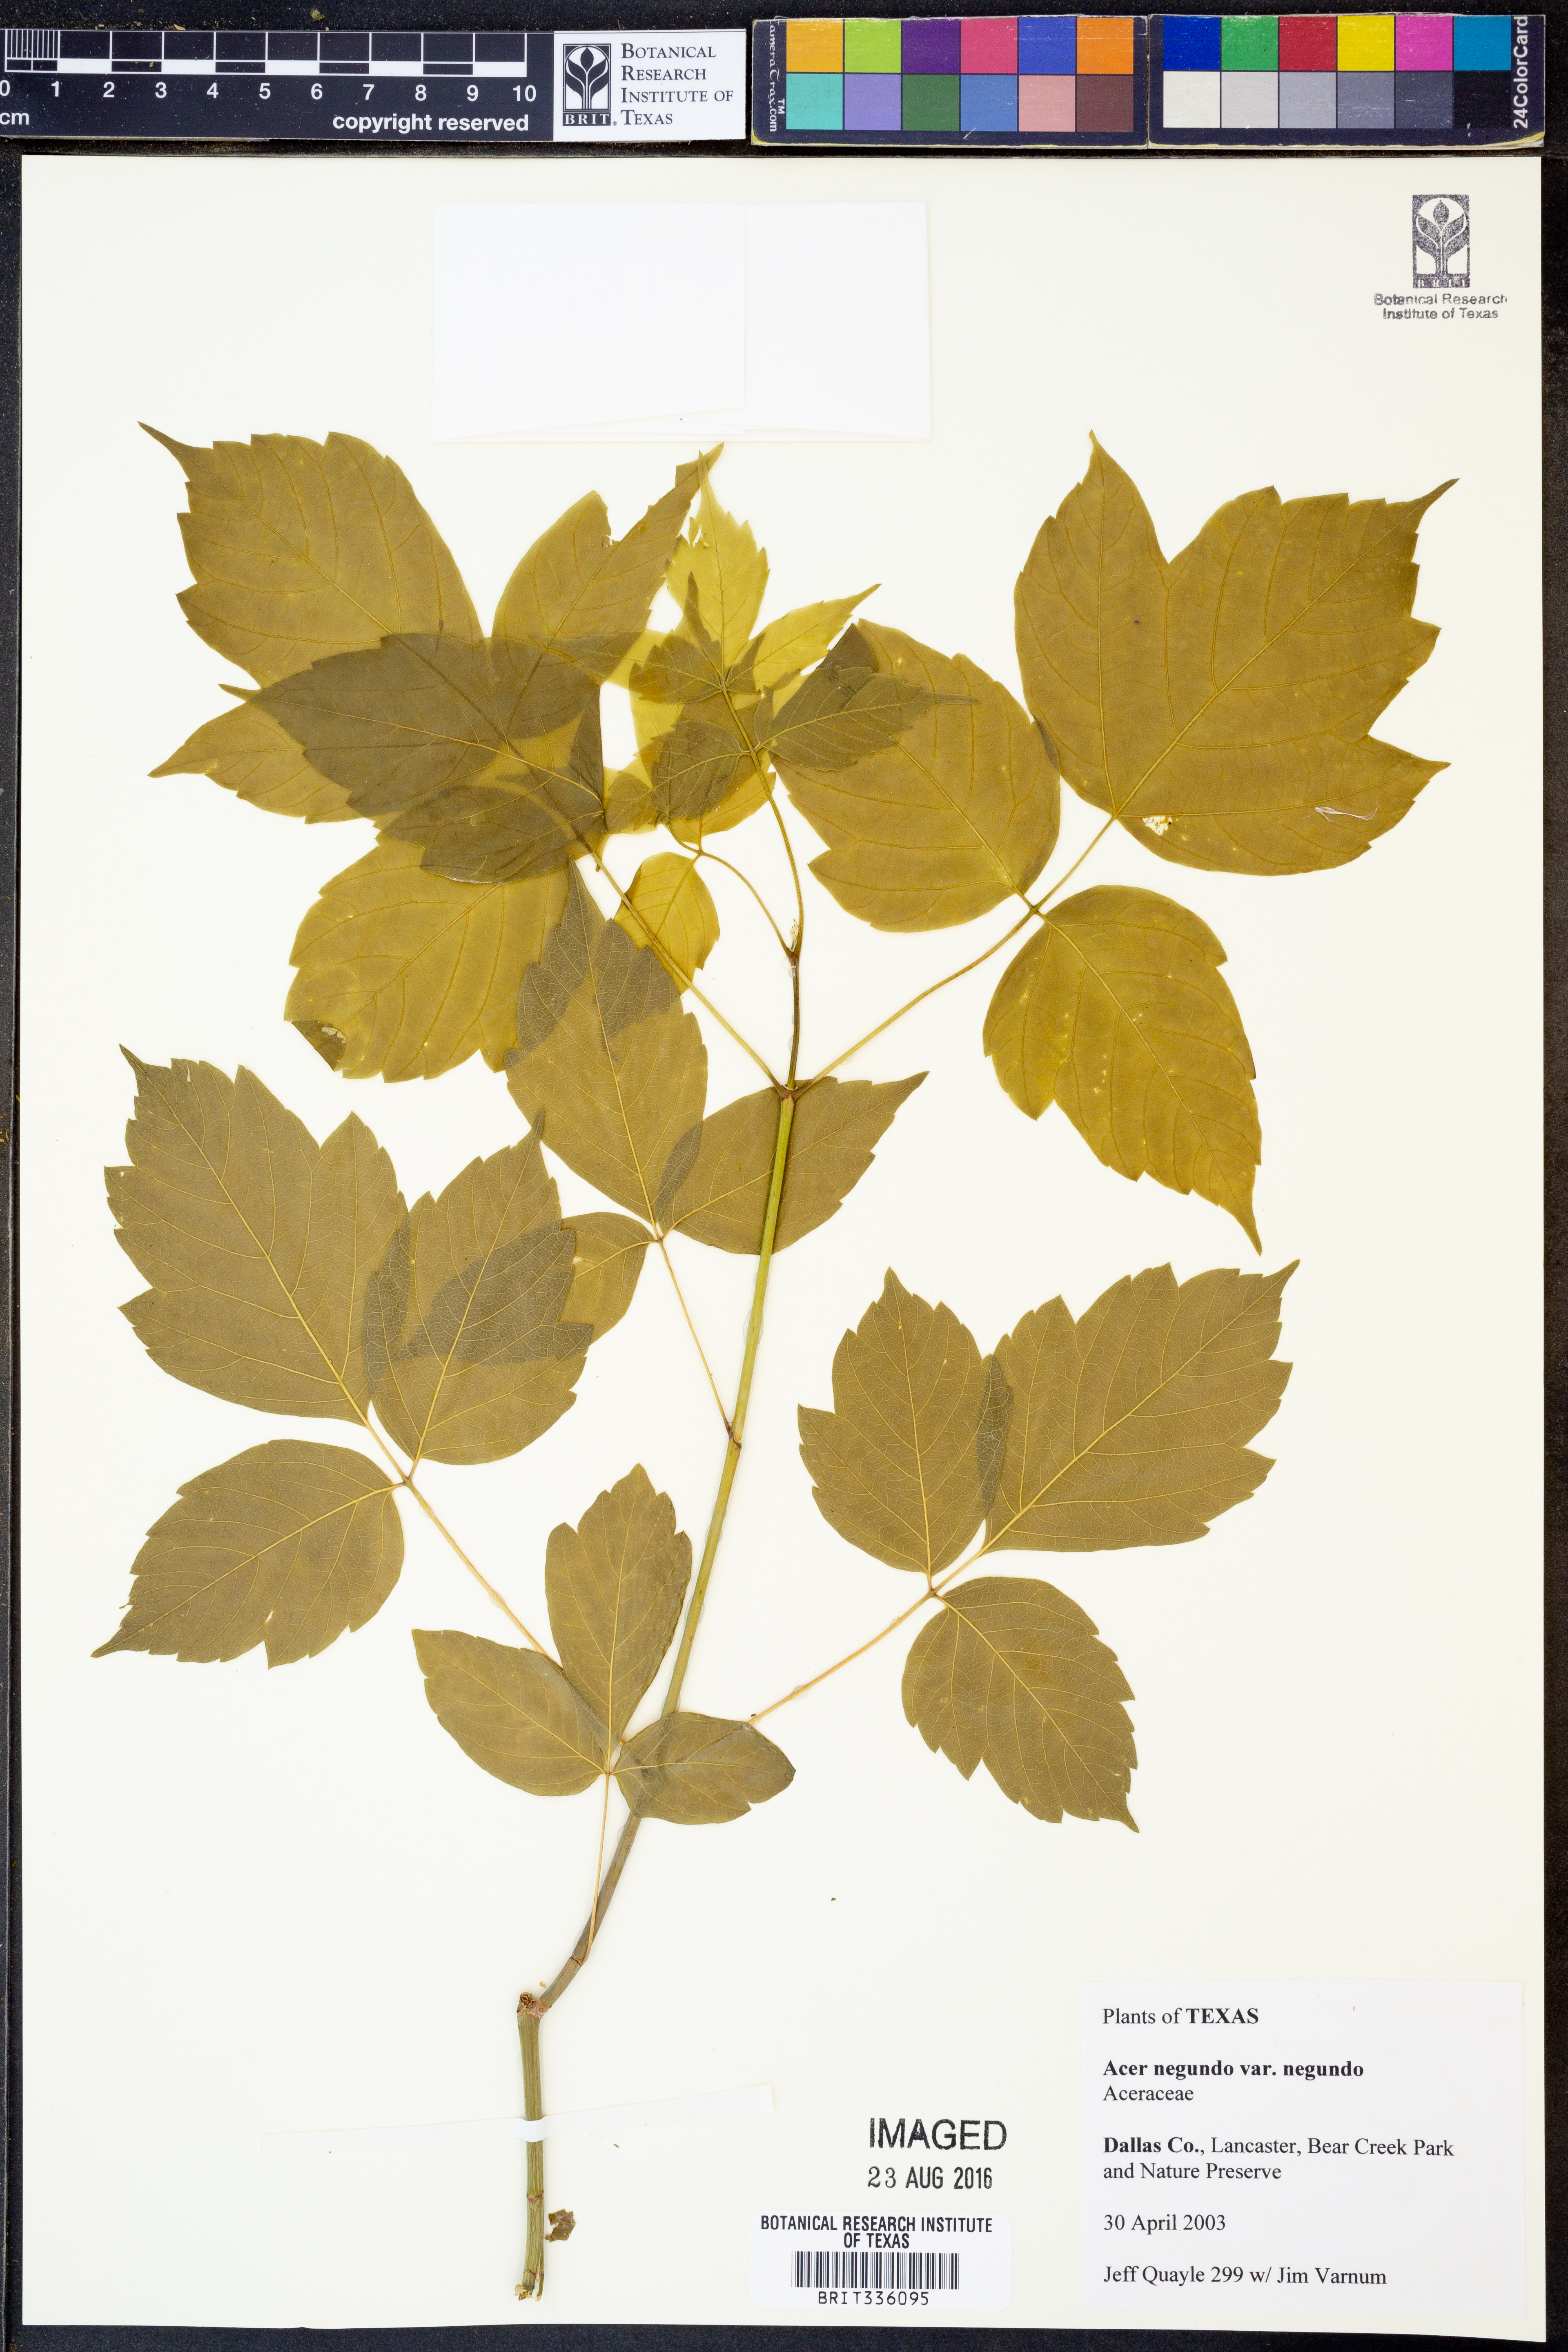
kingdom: Plantae
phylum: Tracheophyta
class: Magnoliopsida
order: Sapindales
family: Sapindaceae
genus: Acer
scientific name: Acer negundo
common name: Ashleaf maple
